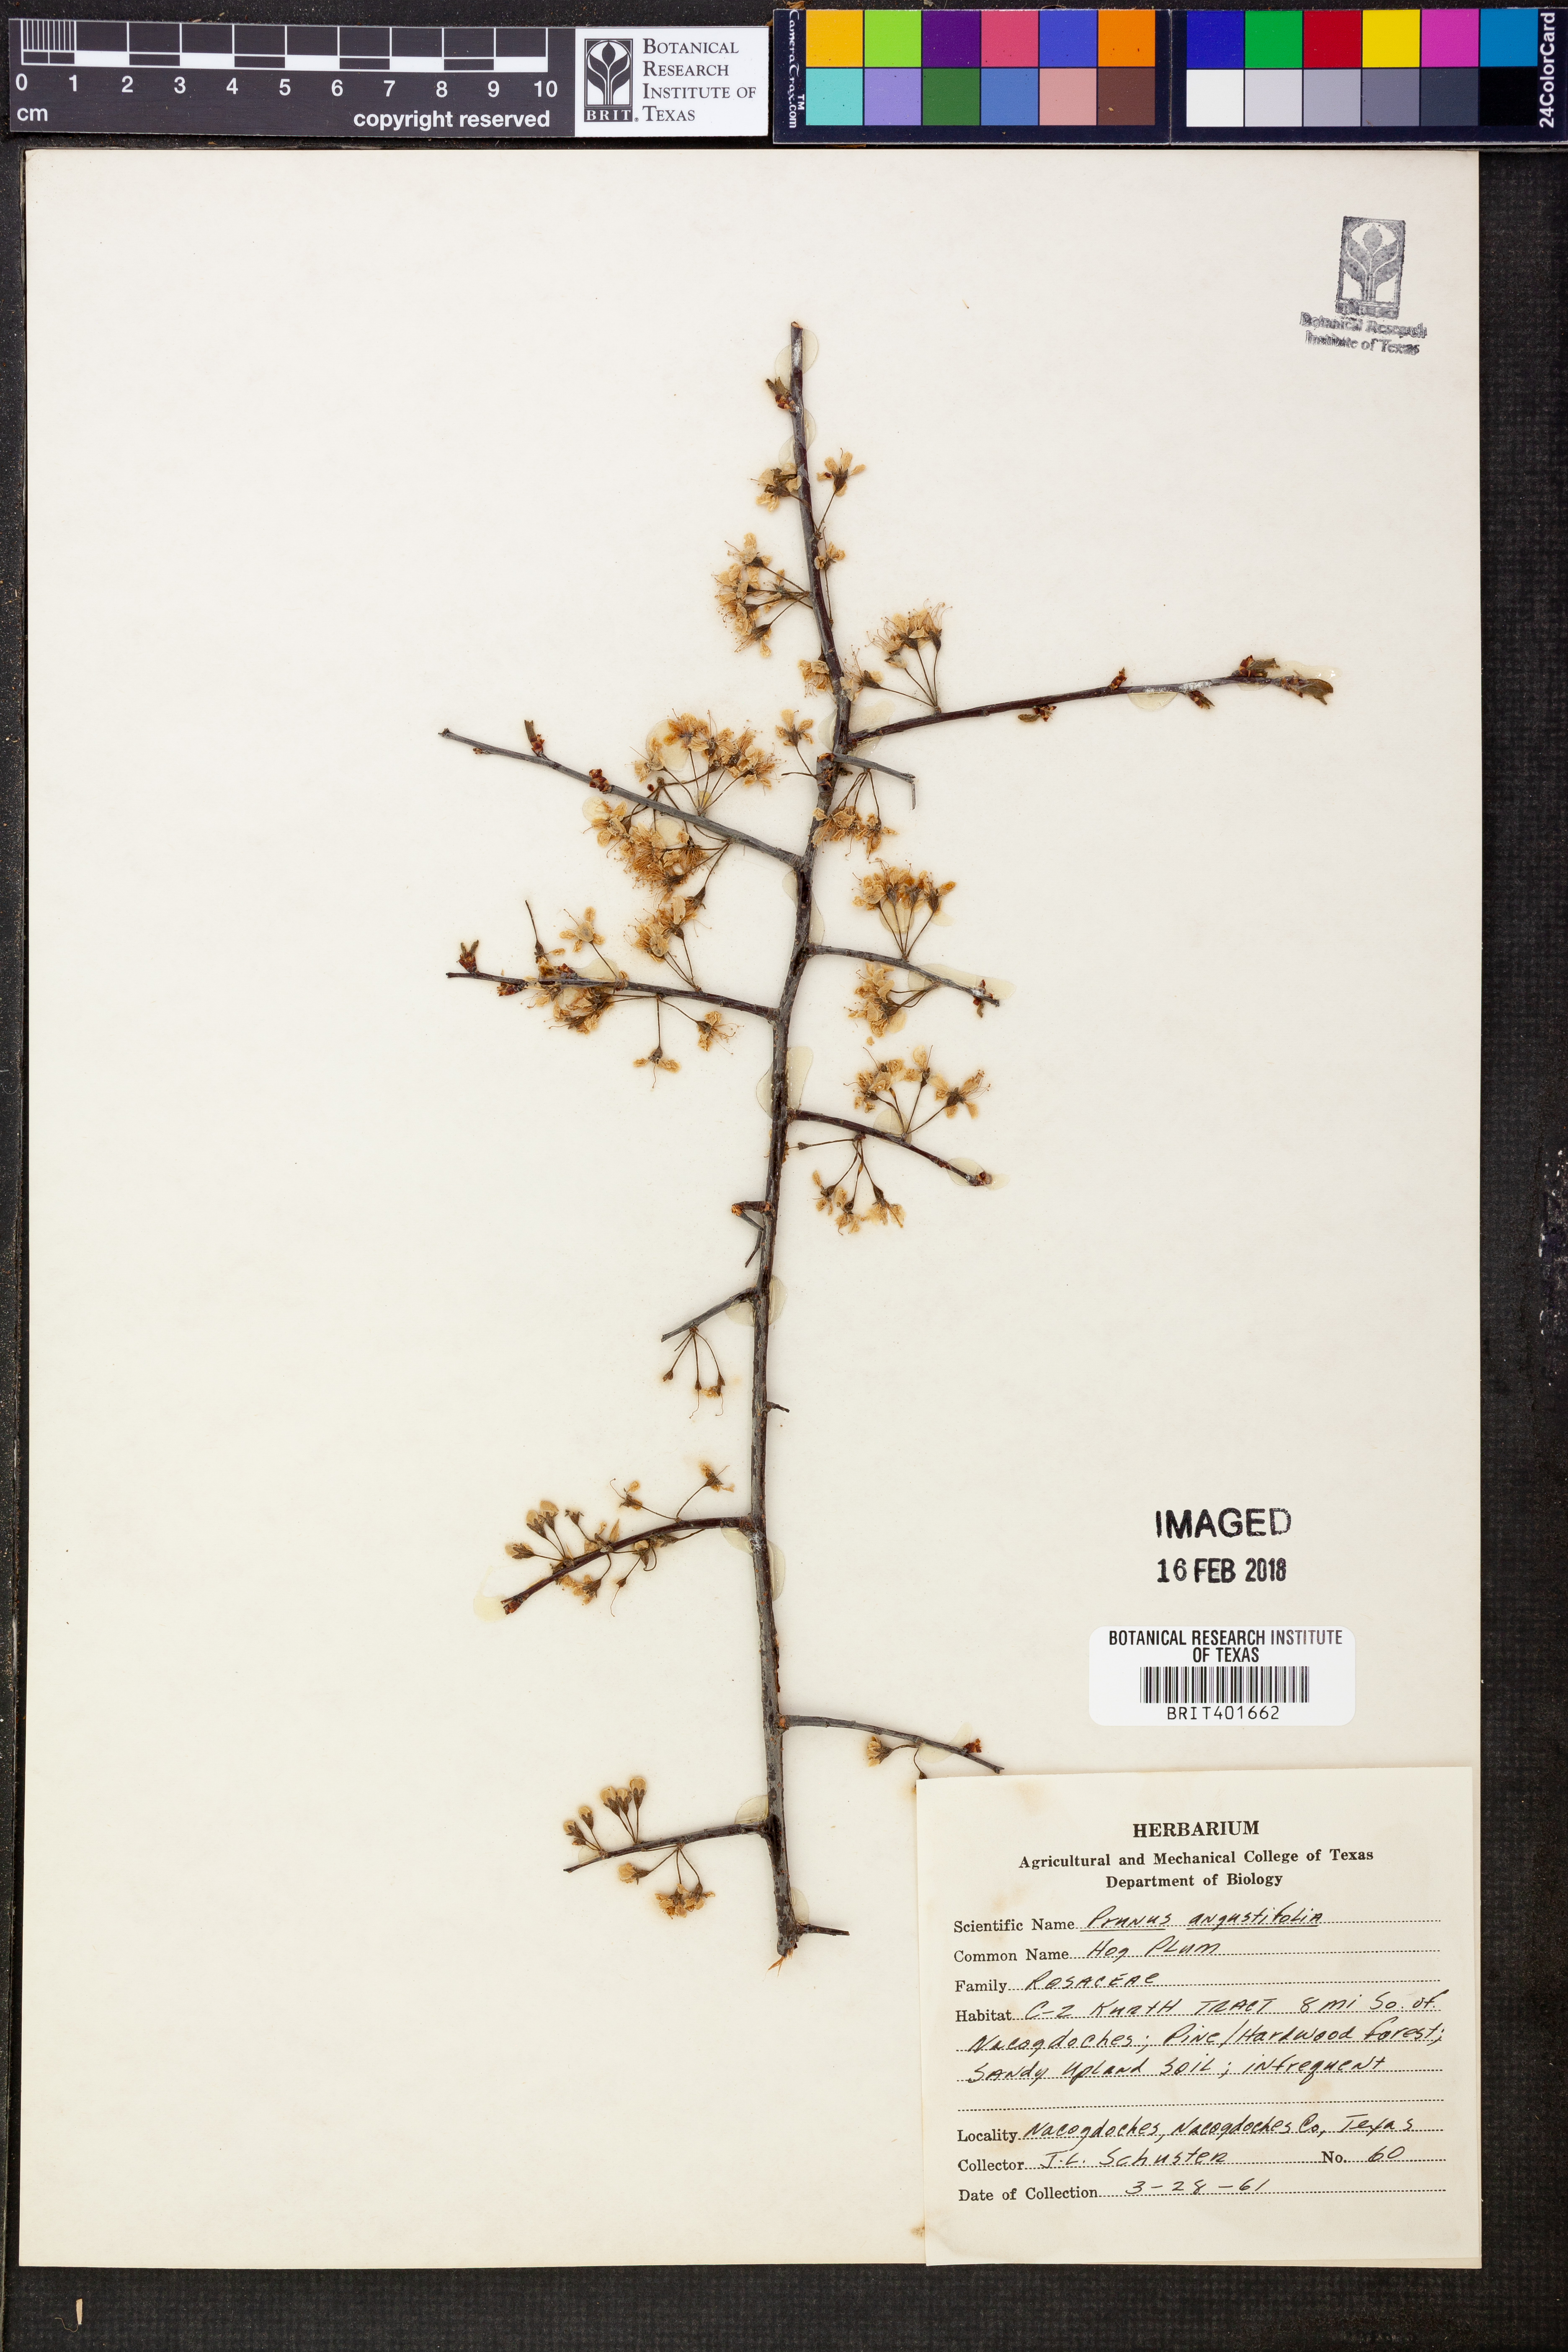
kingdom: Plantae
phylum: Tracheophyta
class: Magnoliopsida
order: Rosales
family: Rosaceae
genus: Prunus
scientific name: Prunus angustifolia
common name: Cherokee plum
